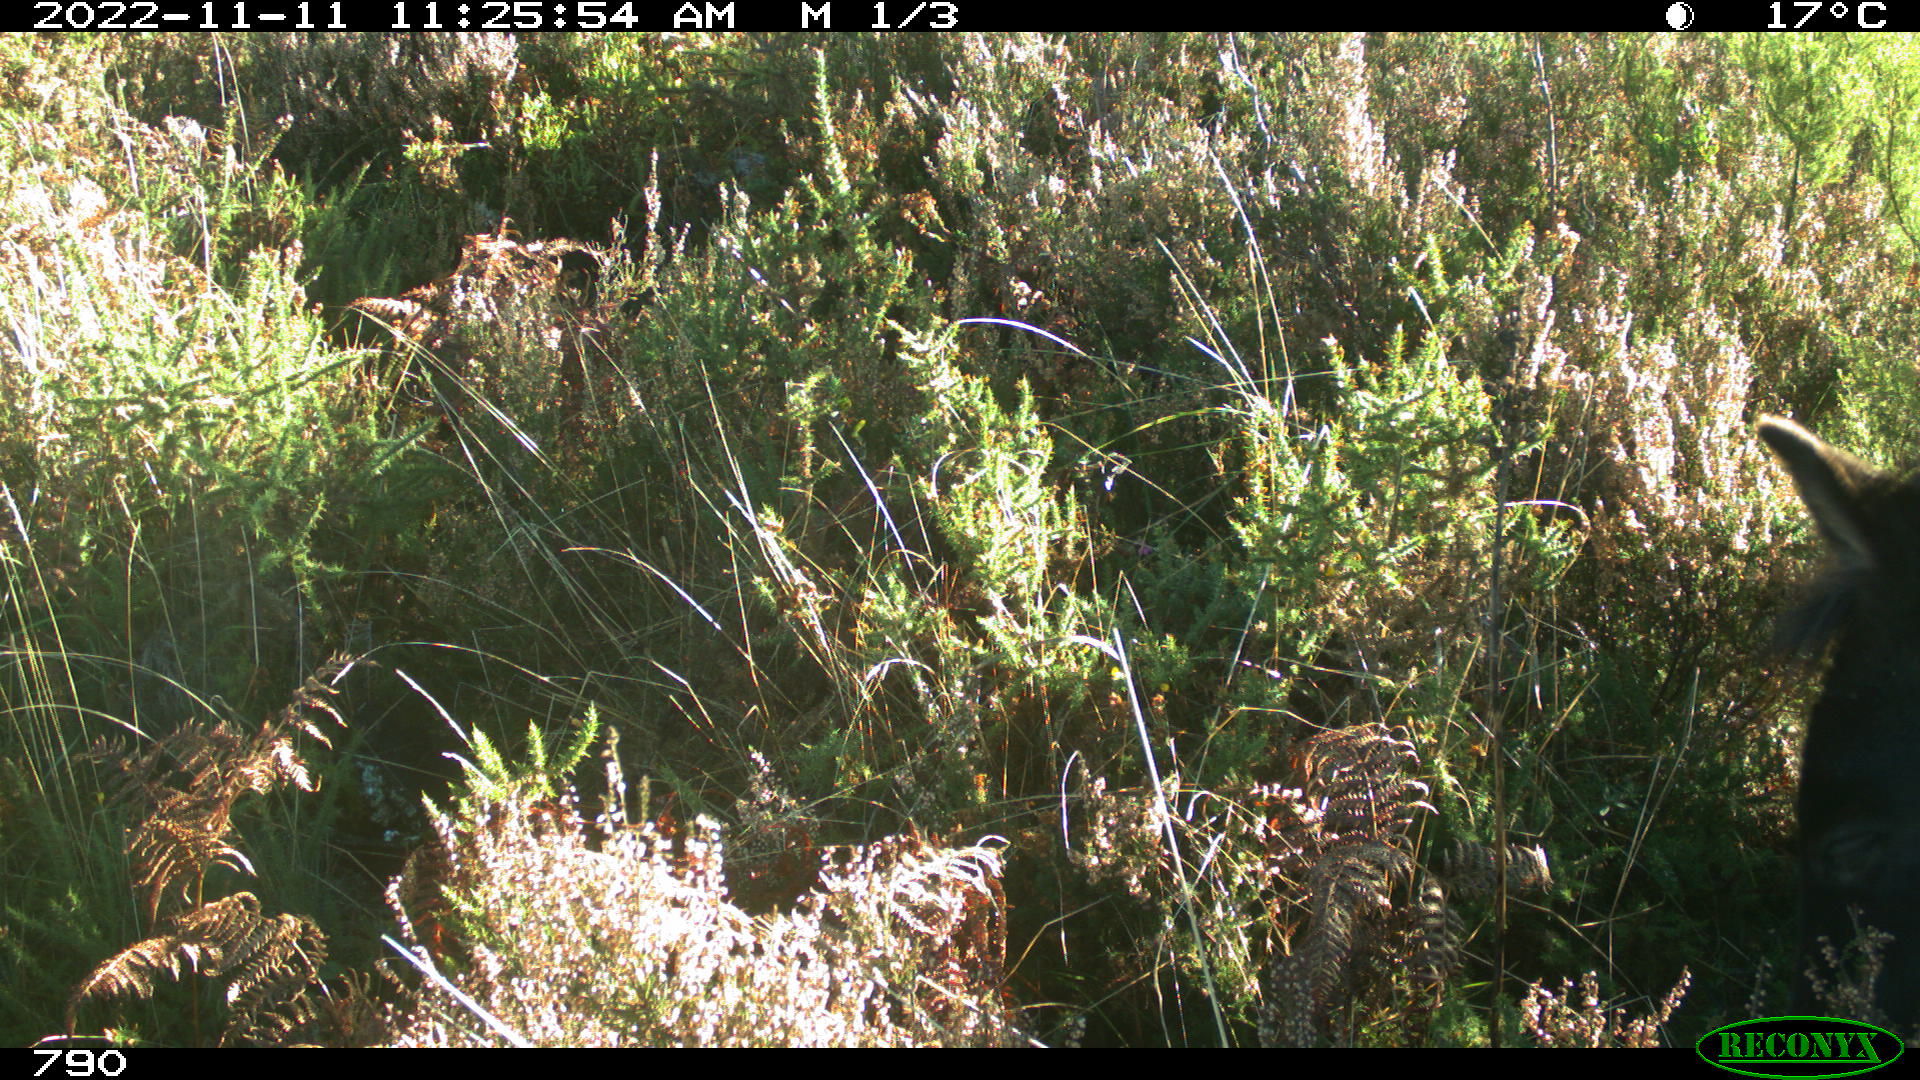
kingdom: Animalia
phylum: Chordata
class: Mammalia
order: Perissodactyla
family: Equidae
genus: Equus
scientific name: Equus caballus
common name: Horse
